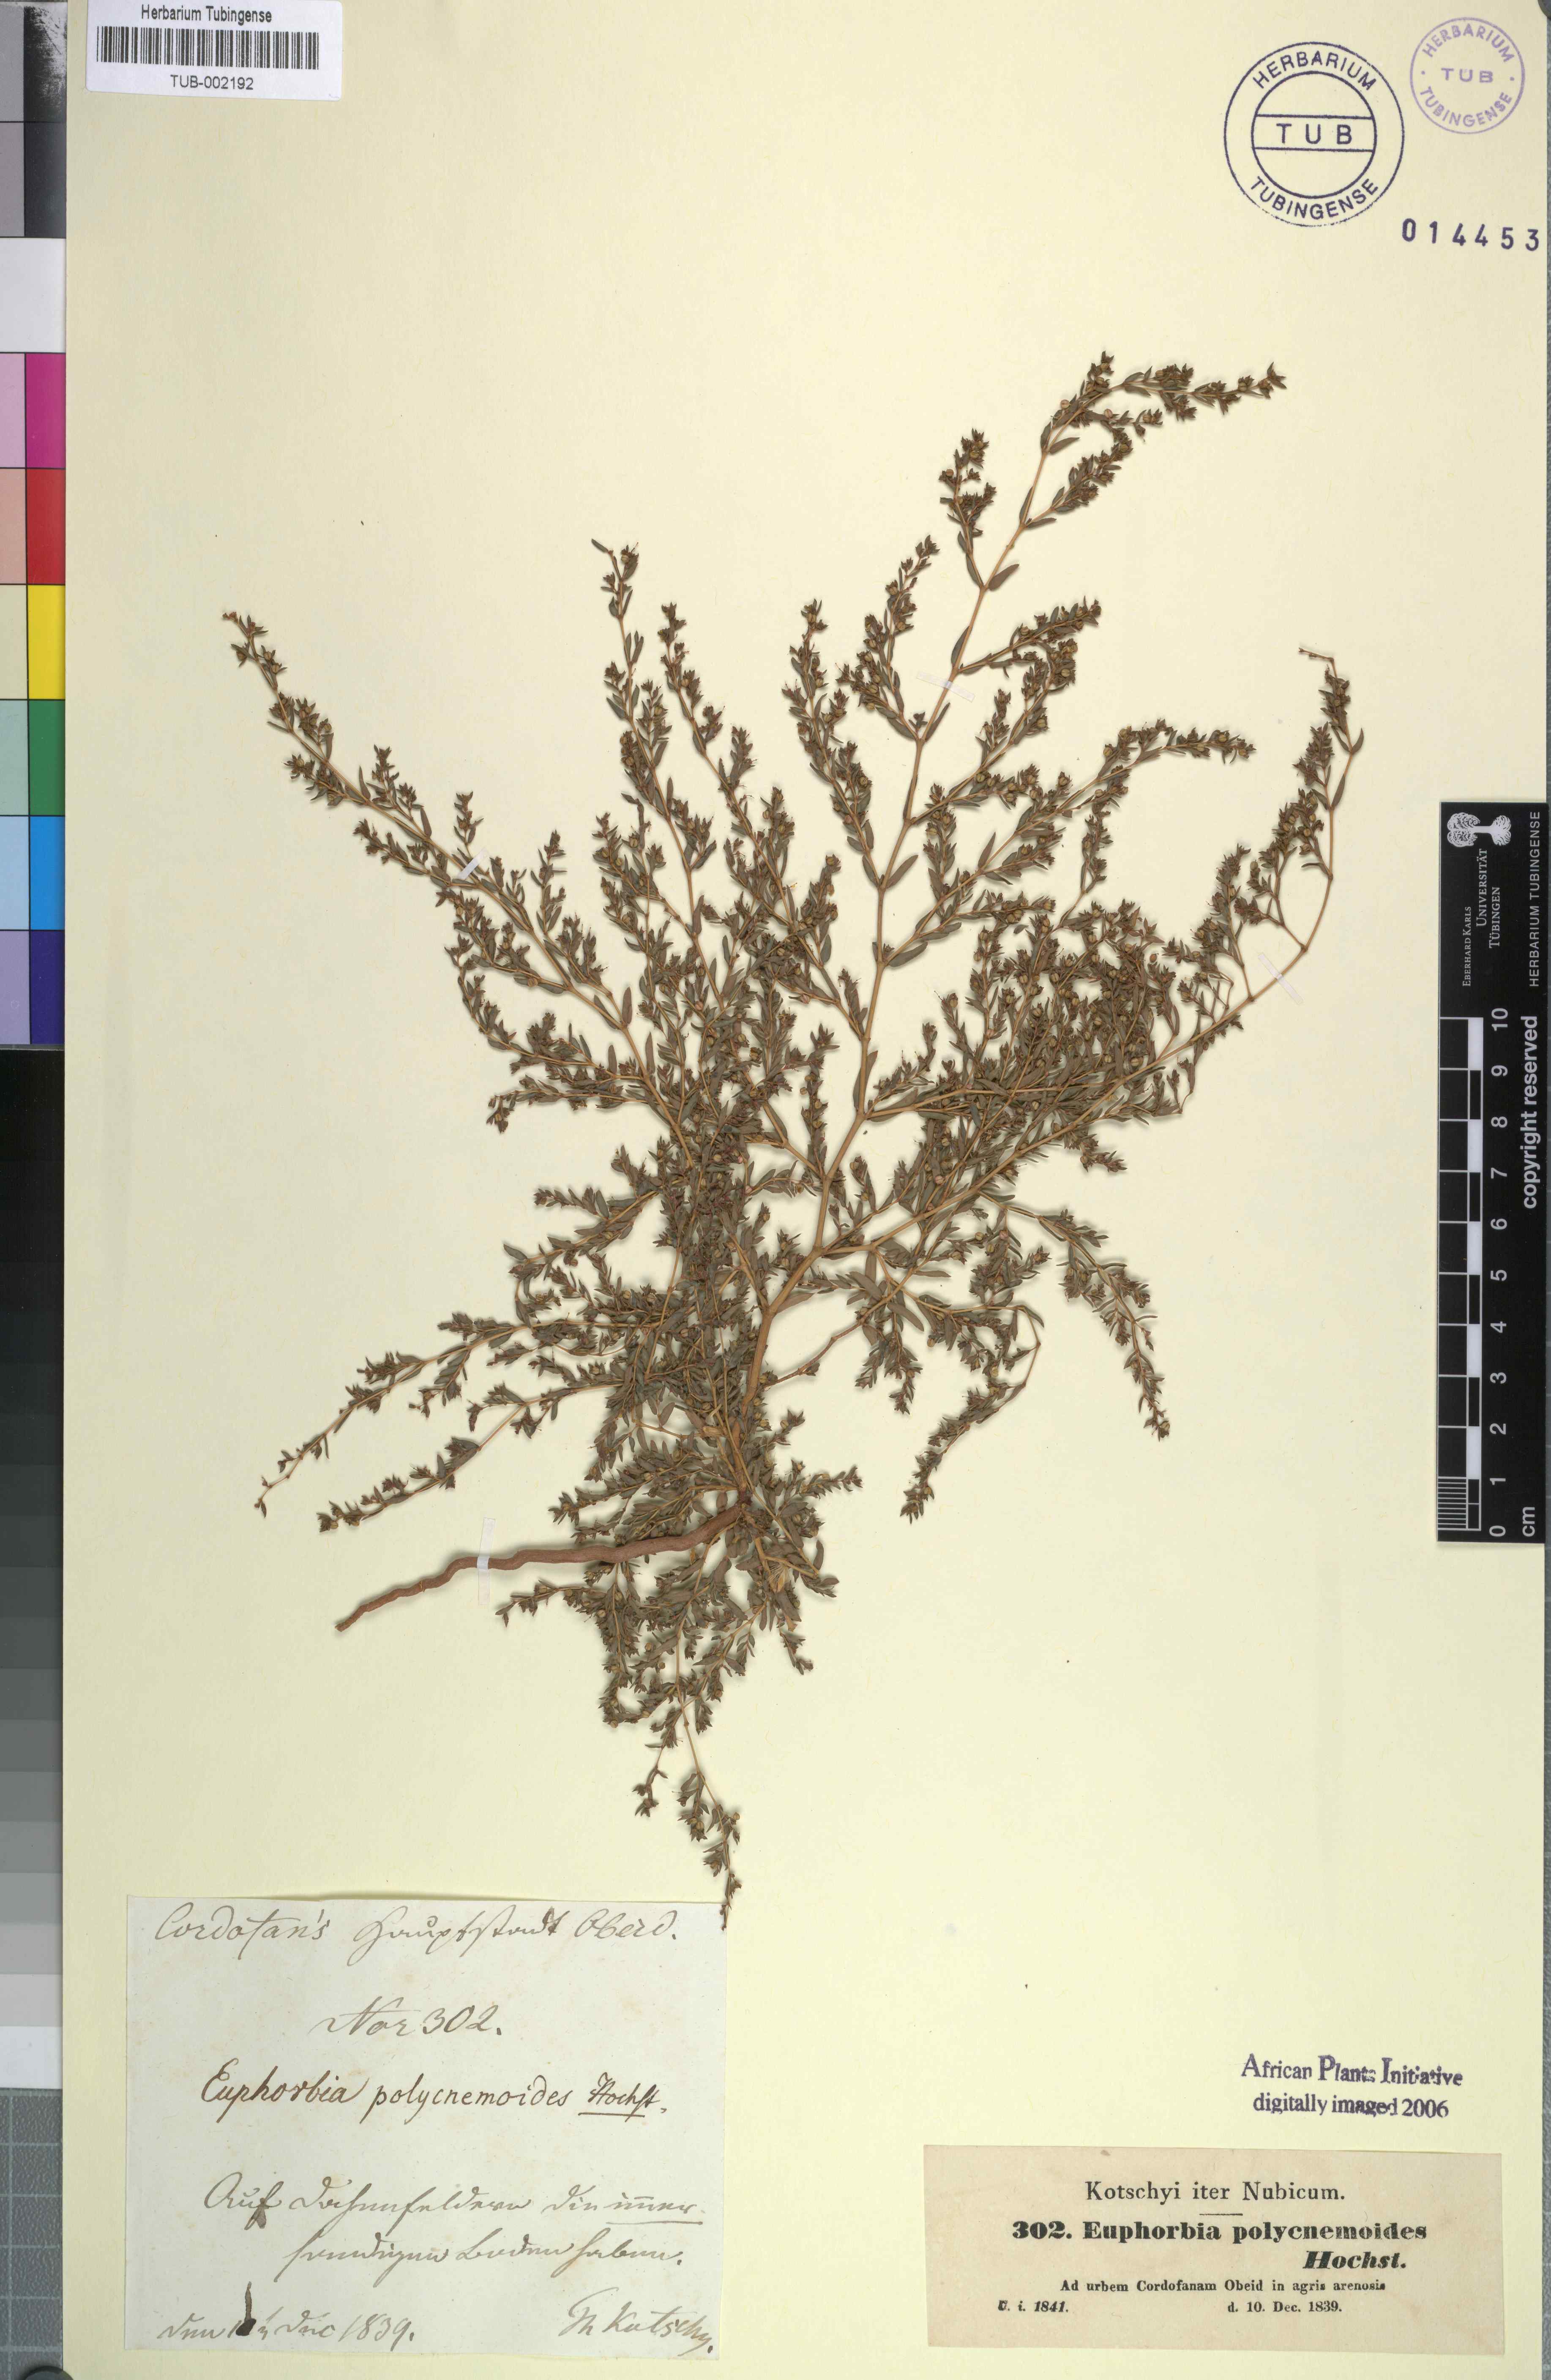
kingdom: Plantae
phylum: Tracheophyta
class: Magnoliopsida
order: Malpighiales
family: Euphorbiaceae
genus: Euphorbia
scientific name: Euphorbia polycnemoides
